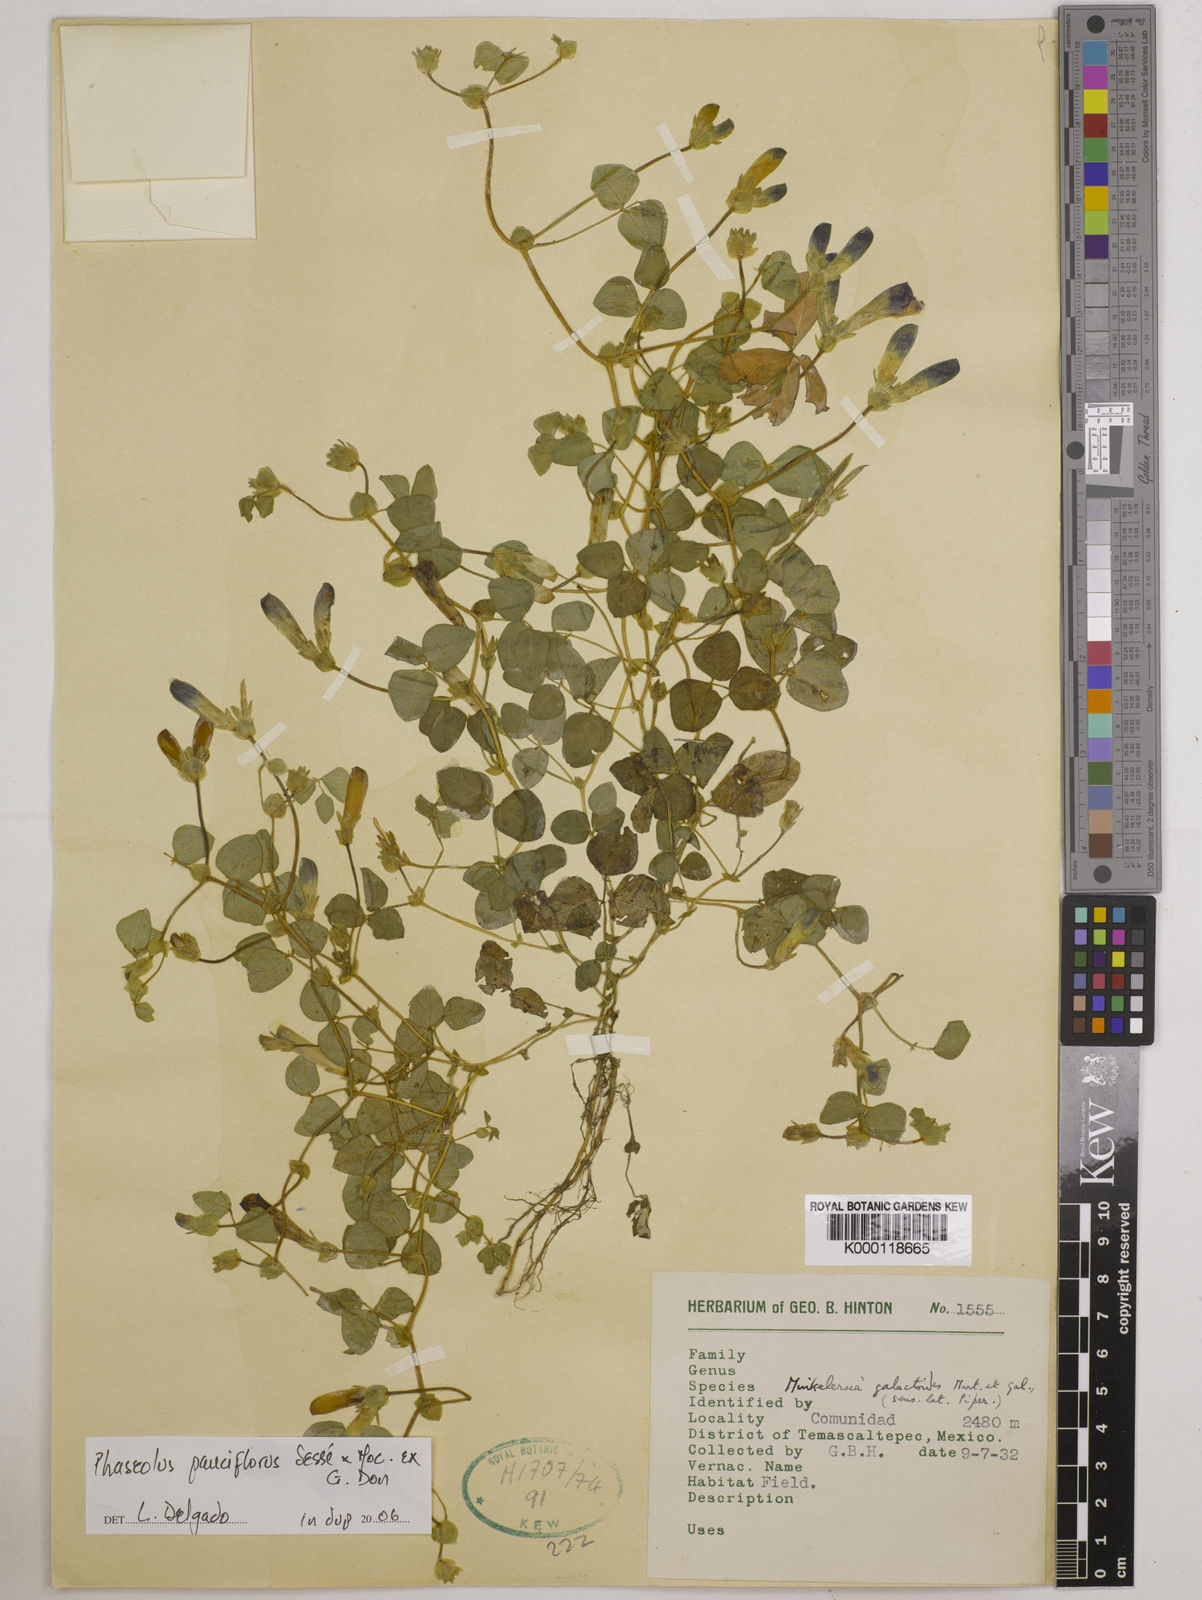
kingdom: Plantae
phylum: Tracheophyta
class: Magnoliopsida
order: Fabales
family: Fabaceae
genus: Phaseolus
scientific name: Phaseolus
